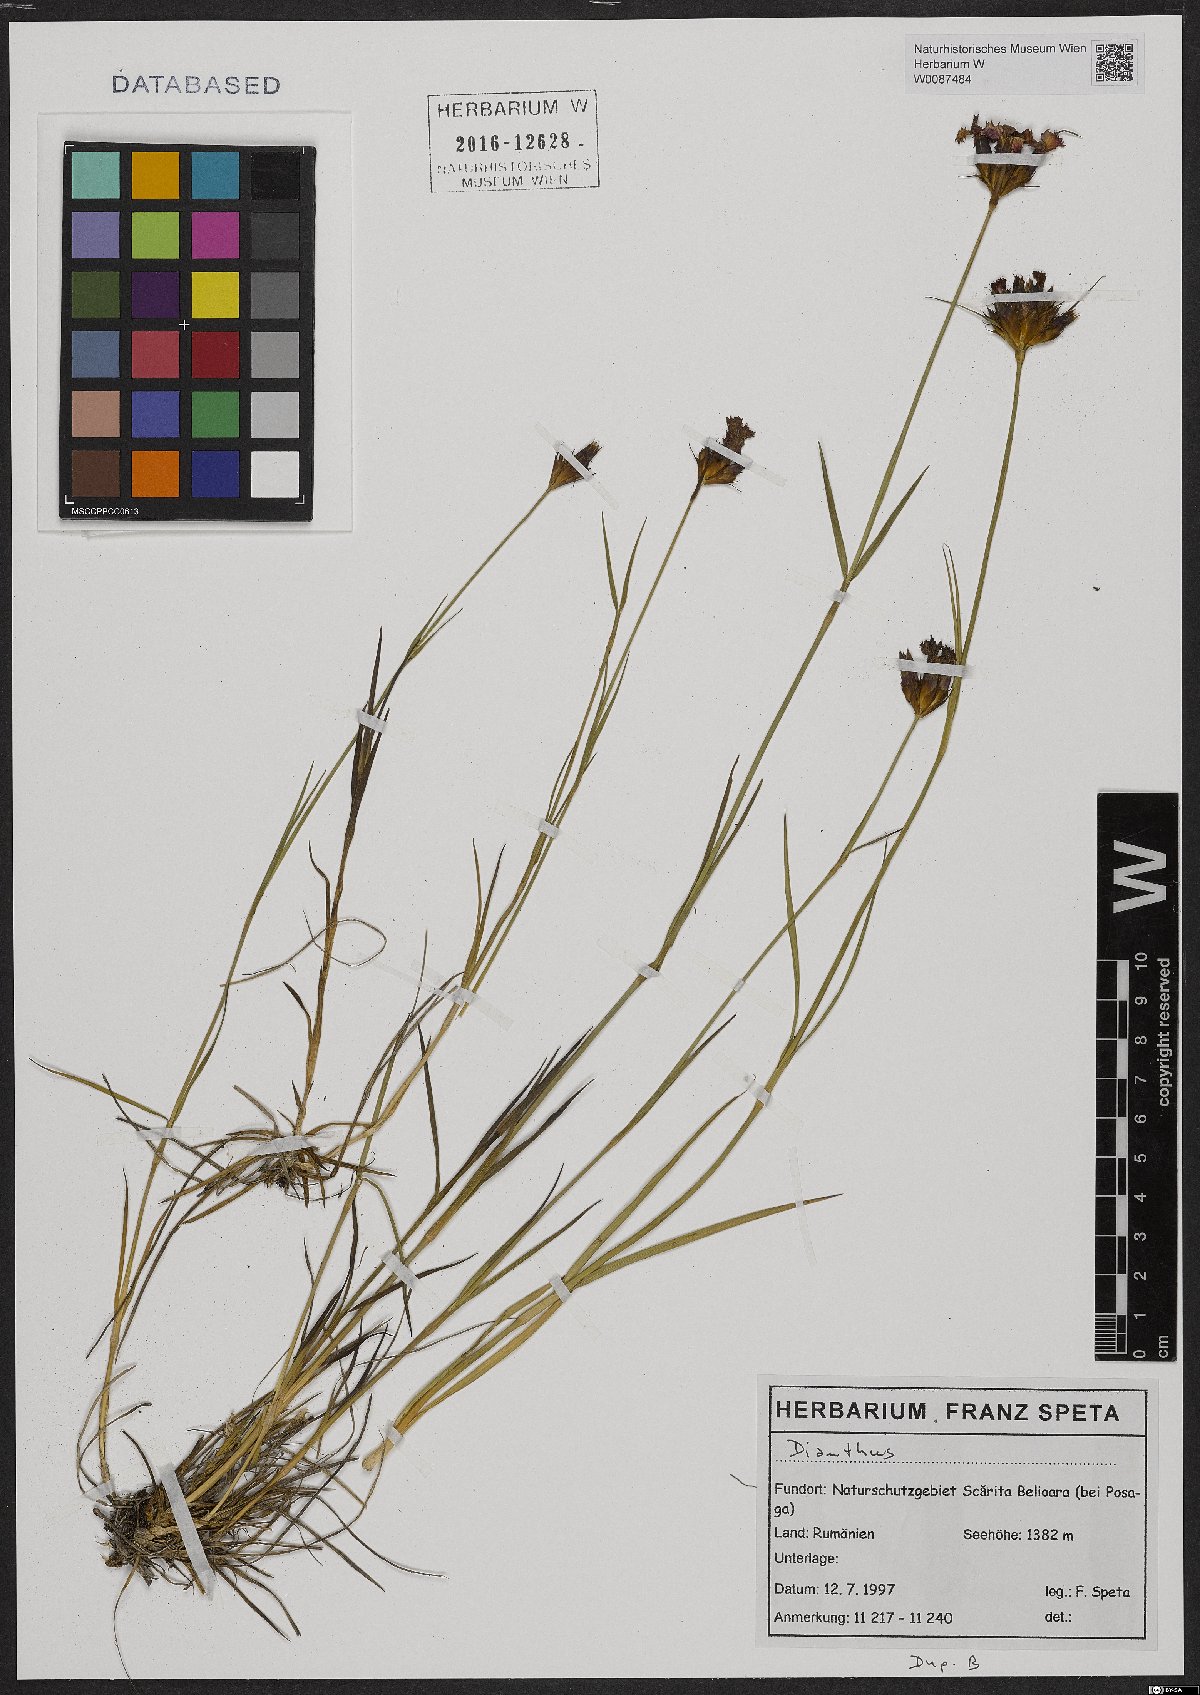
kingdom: Plantae
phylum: Tracheophyta
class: Magnoliopsida
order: Caryophyllales
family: Caryophyllaceae
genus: Dianthus
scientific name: Dianthus
